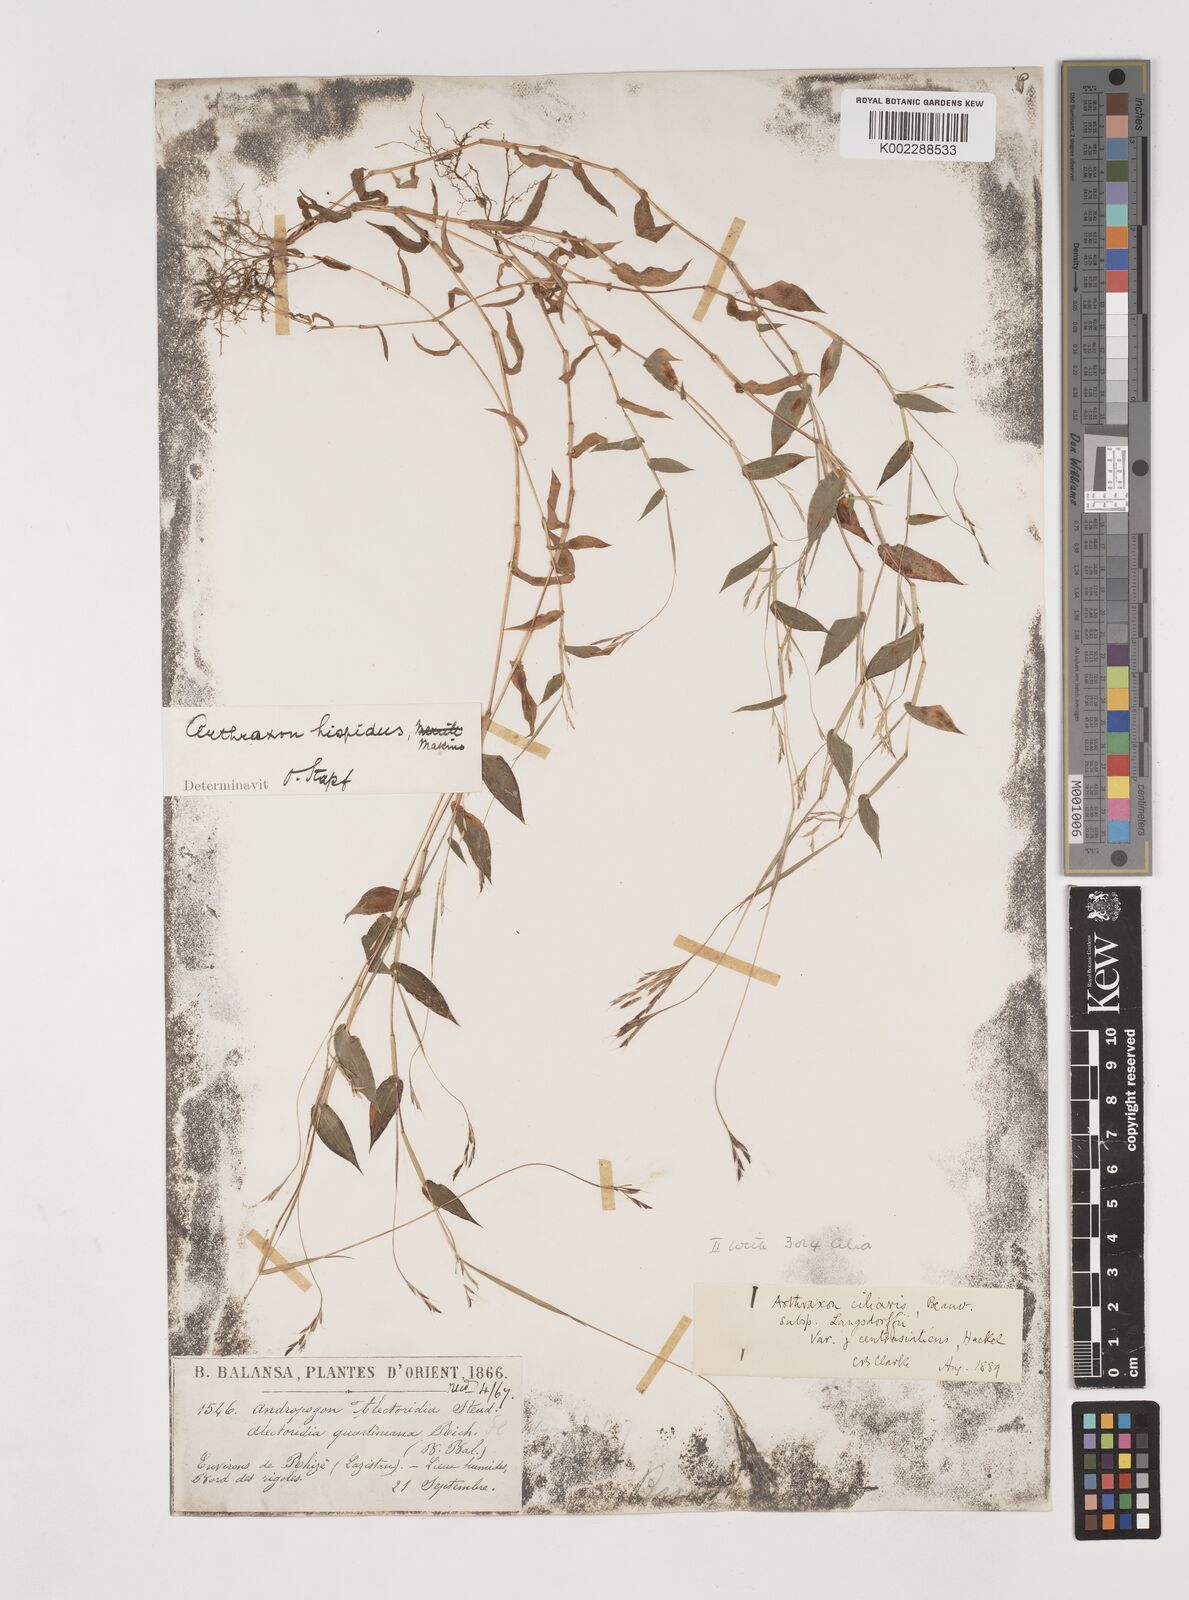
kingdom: Plantae
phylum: Tracheophyta
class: Liliopsida
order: Poales
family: Poaceae
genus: Arthraxon
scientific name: Arthraxon hispidus
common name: Small carpgrass
